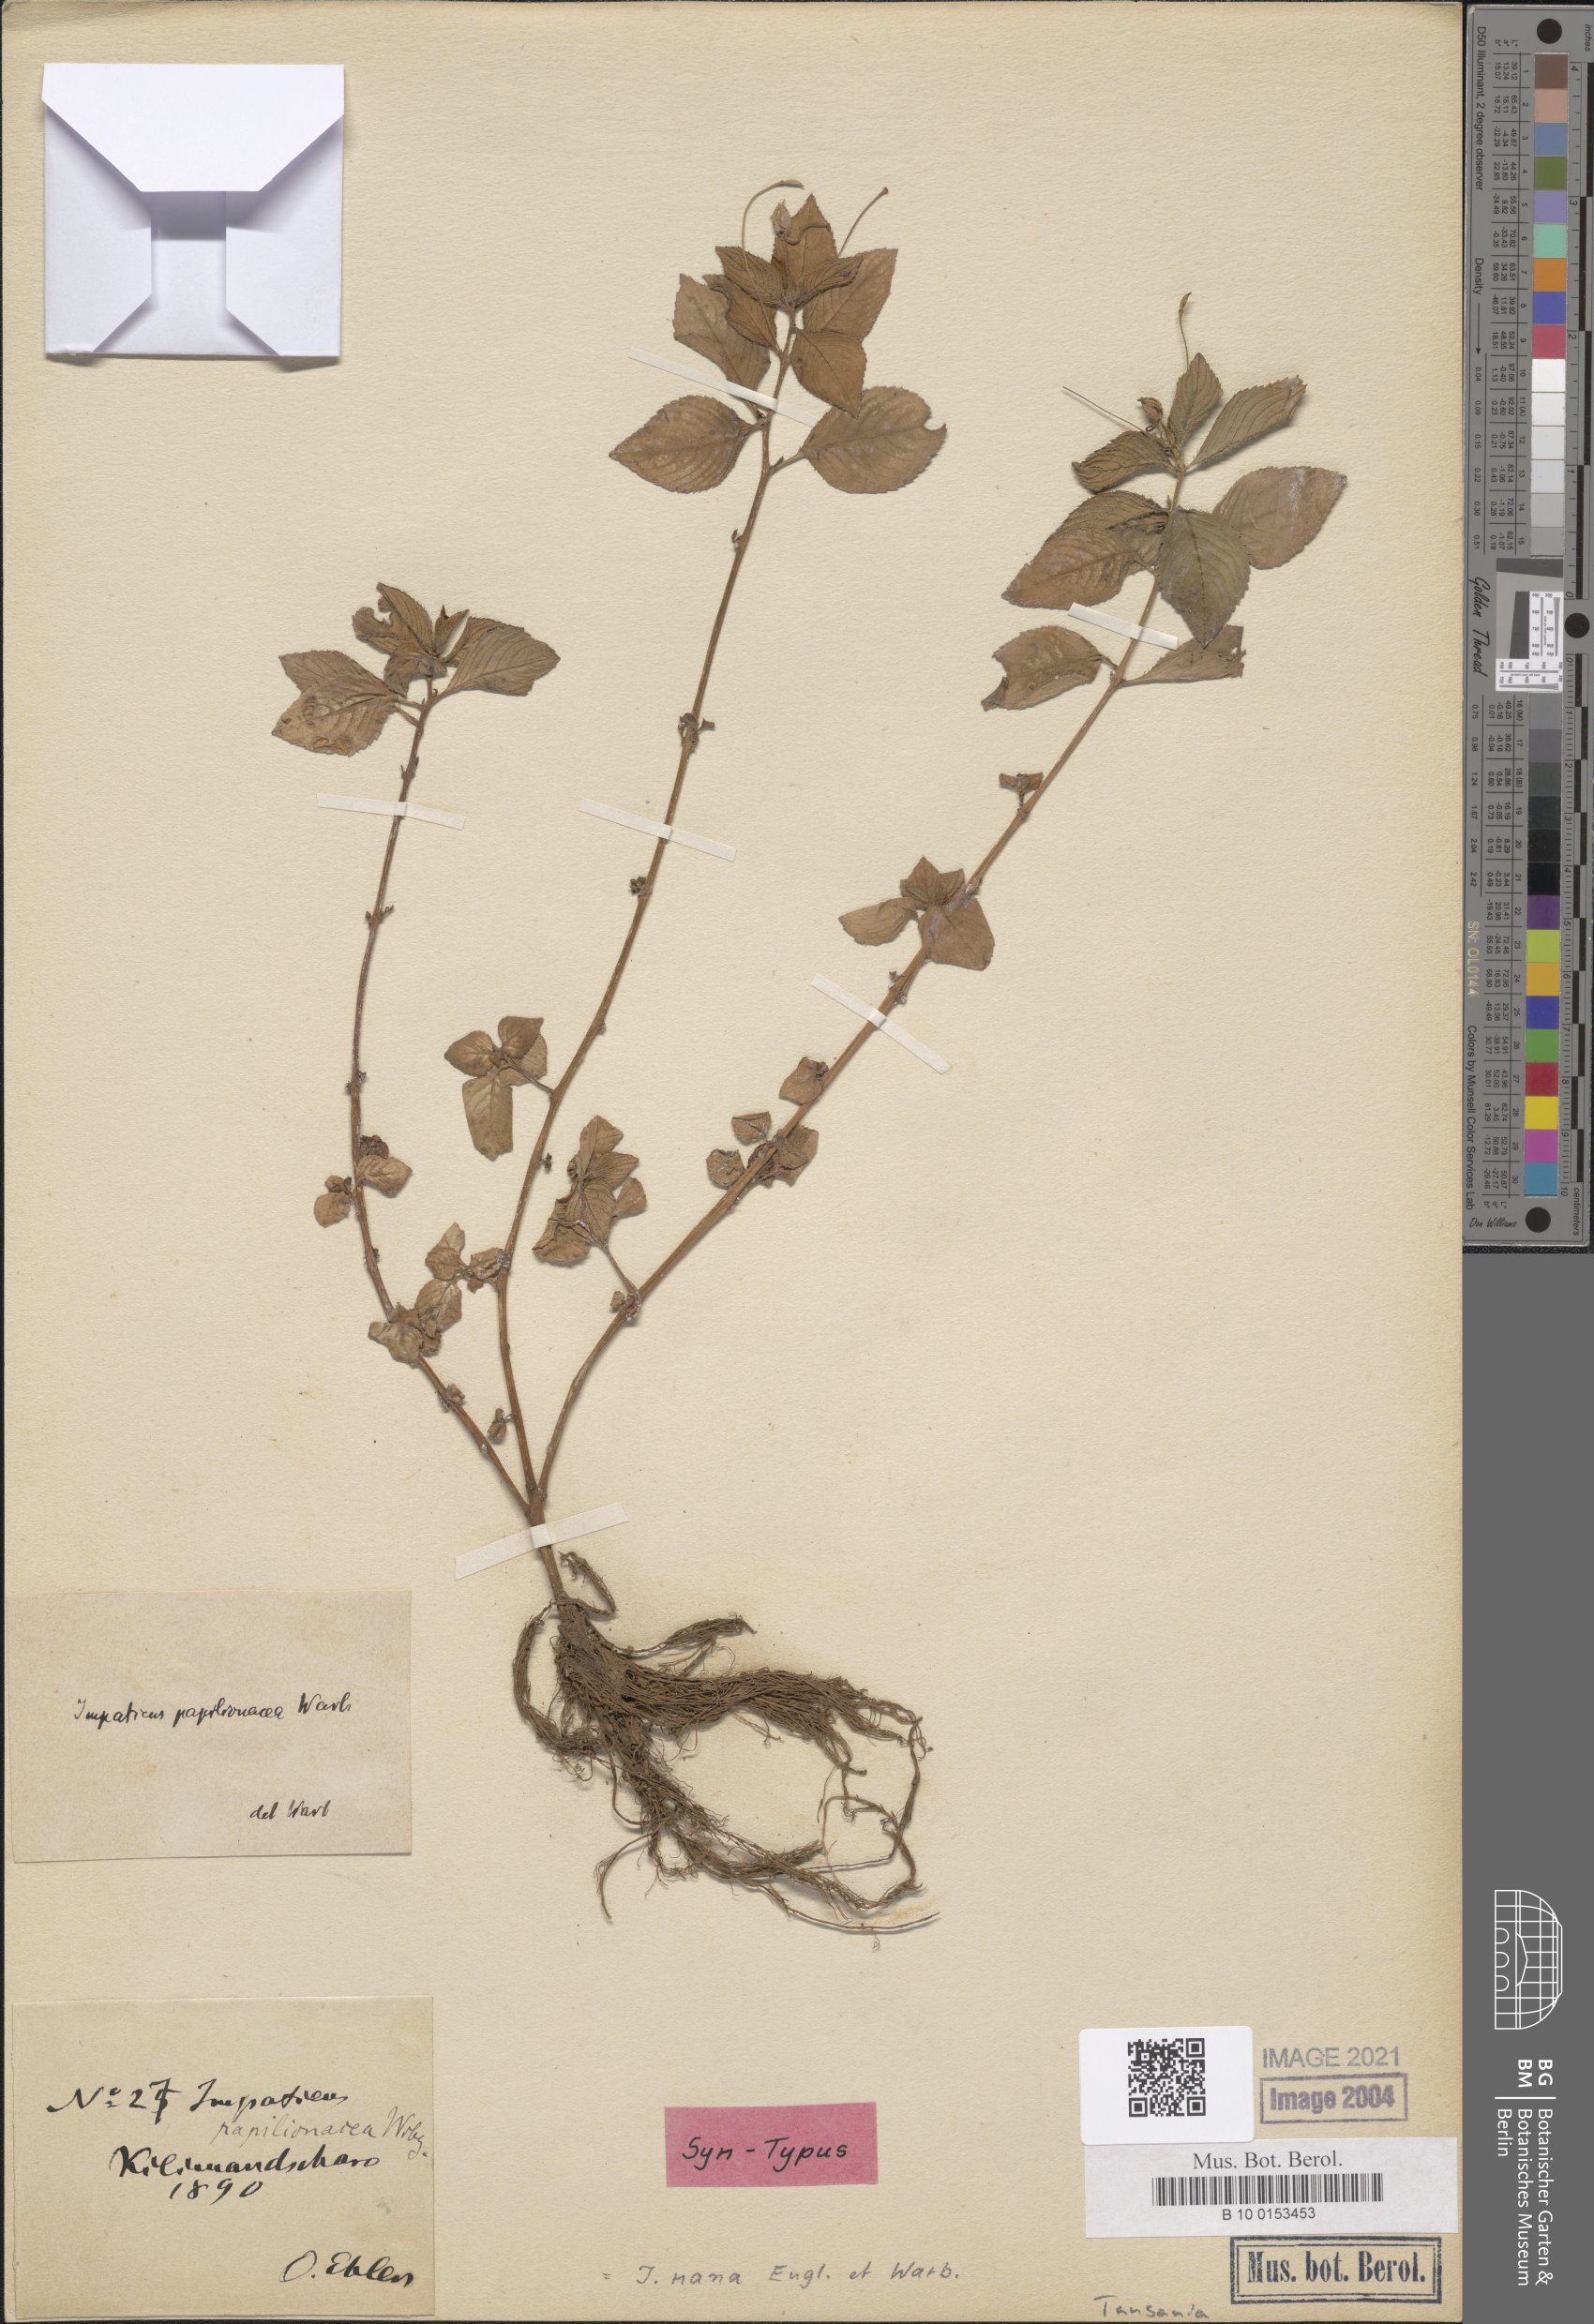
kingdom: Plantae
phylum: Tracheophyta
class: Magnoliopsida
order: Ericales
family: Balsaminaceae
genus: Impatiens
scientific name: Impatiens nana
